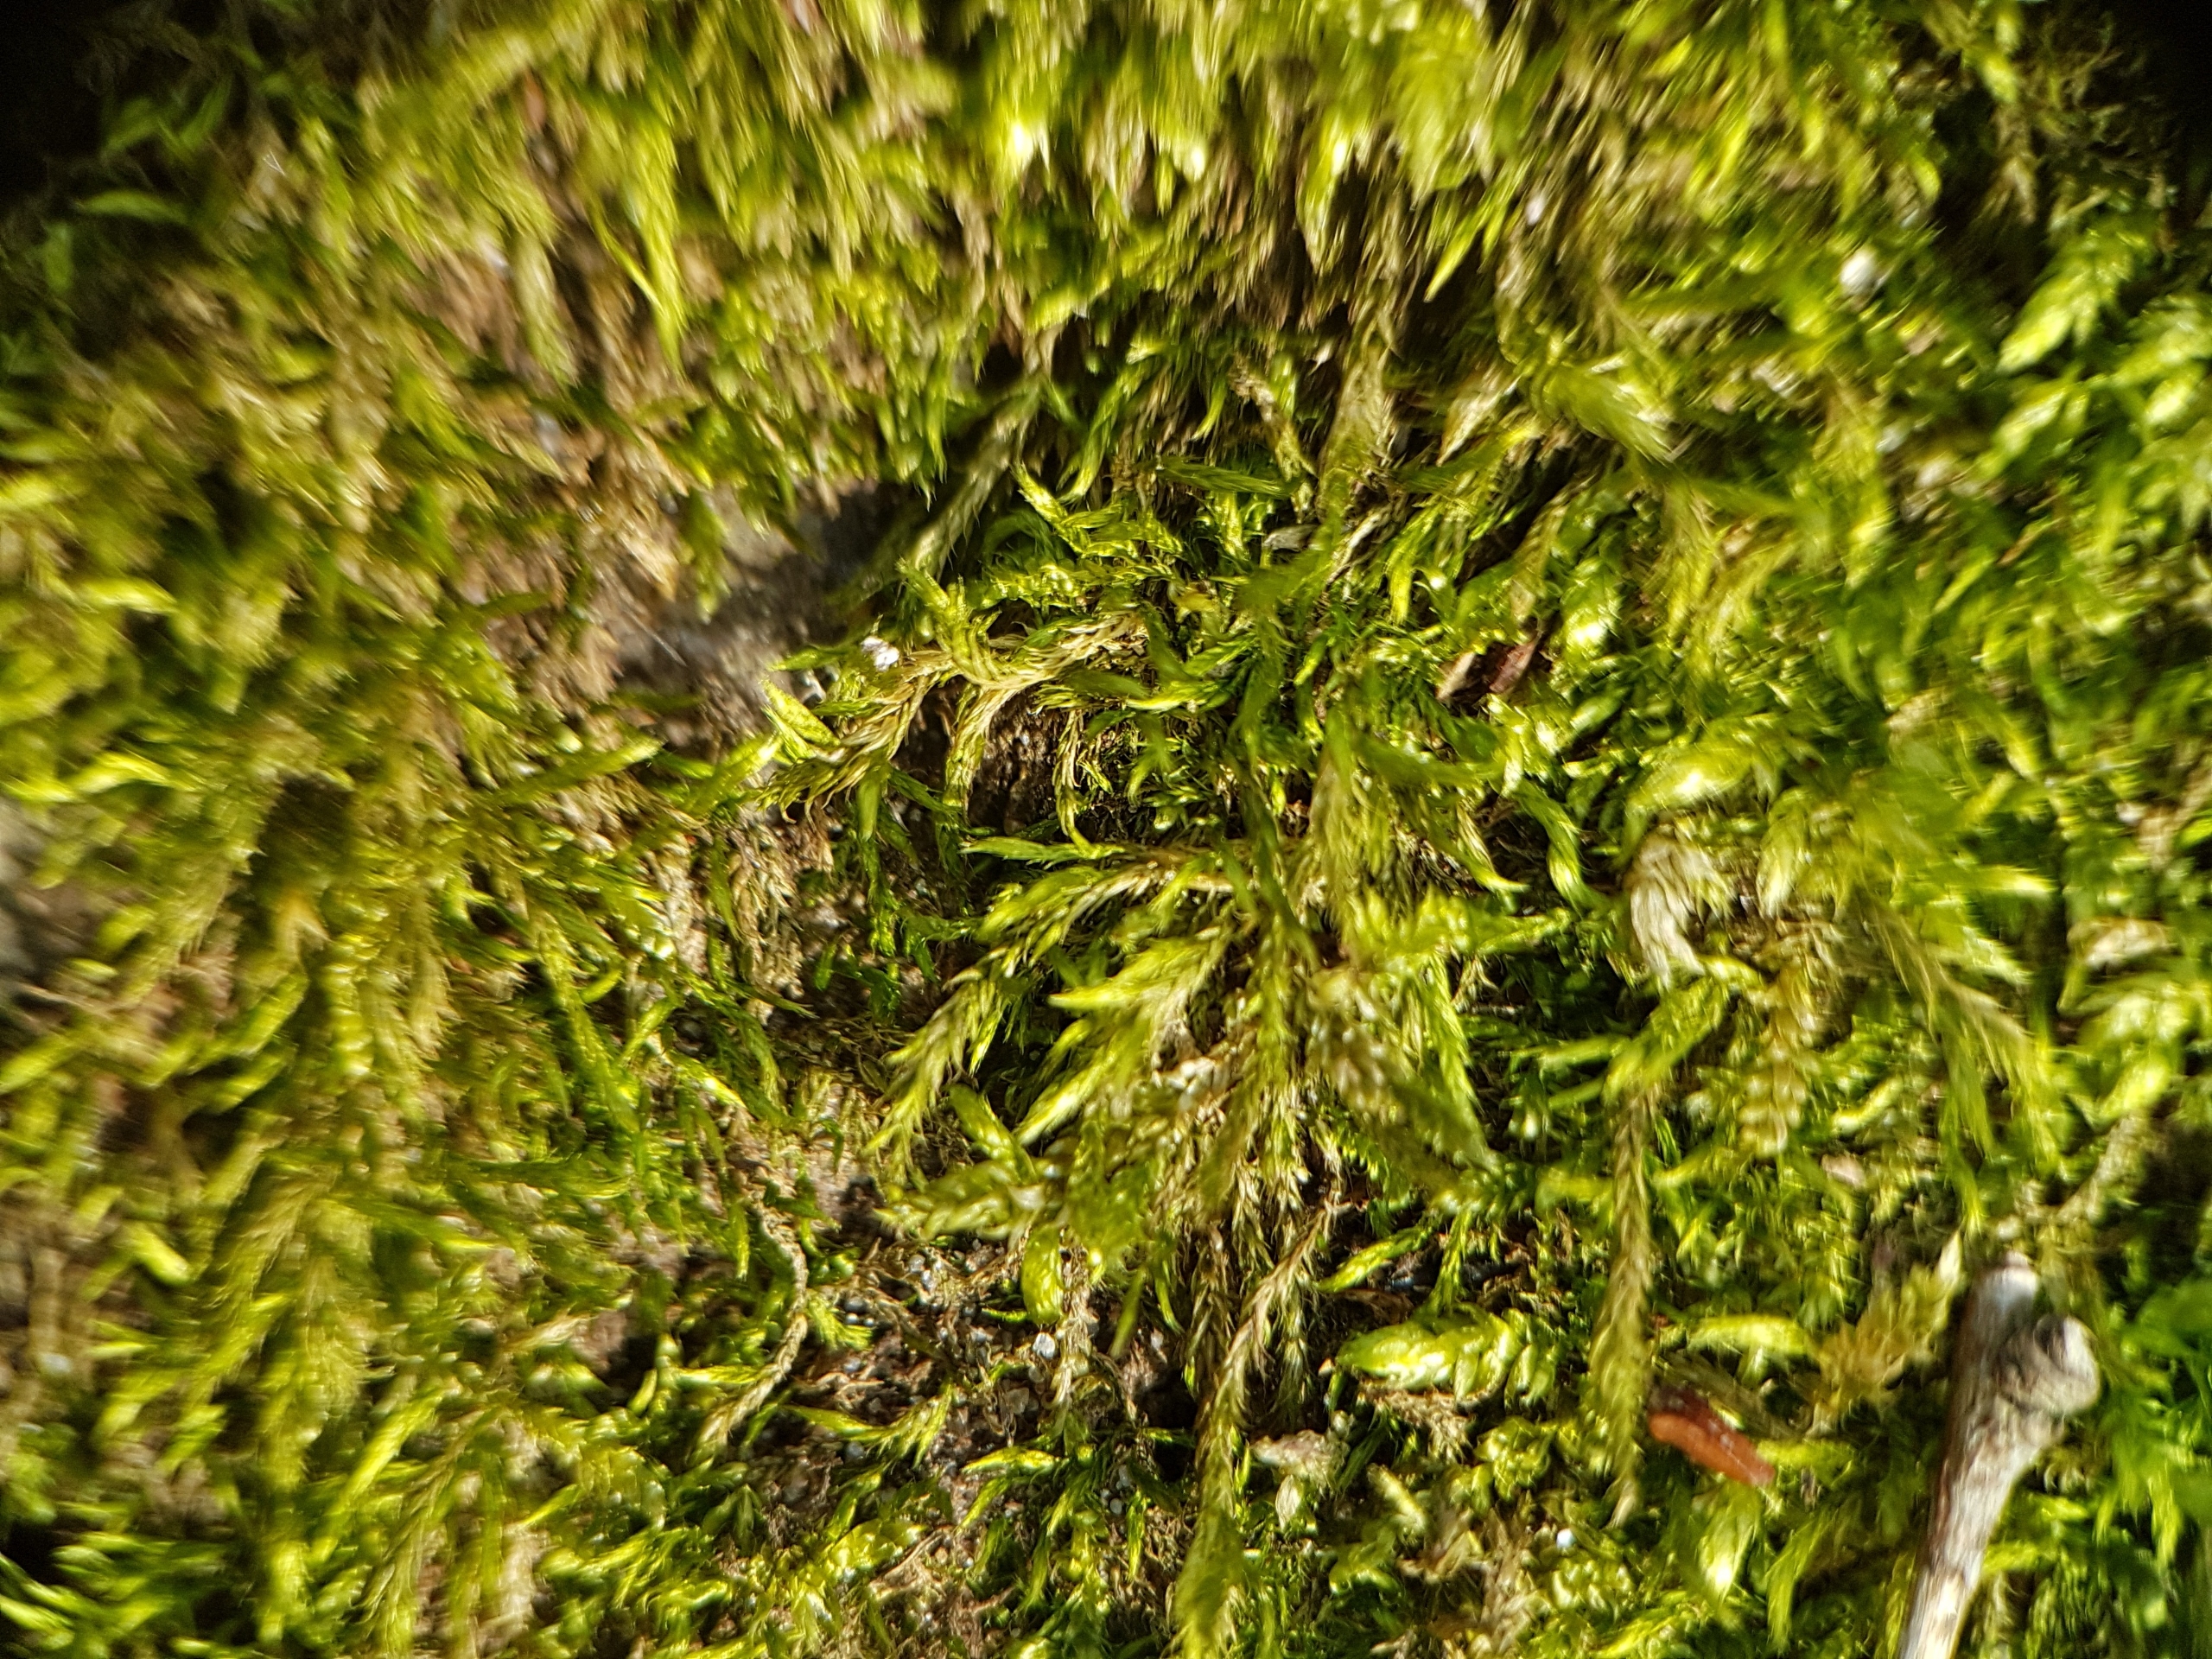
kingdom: Plantae
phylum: Bryophyta
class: Bryopsida
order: Hypnales
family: Brachytheciaceae
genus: Sciuro-hypnum
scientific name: Sciuro-hypnum populeum
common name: Park-kortkapsel
